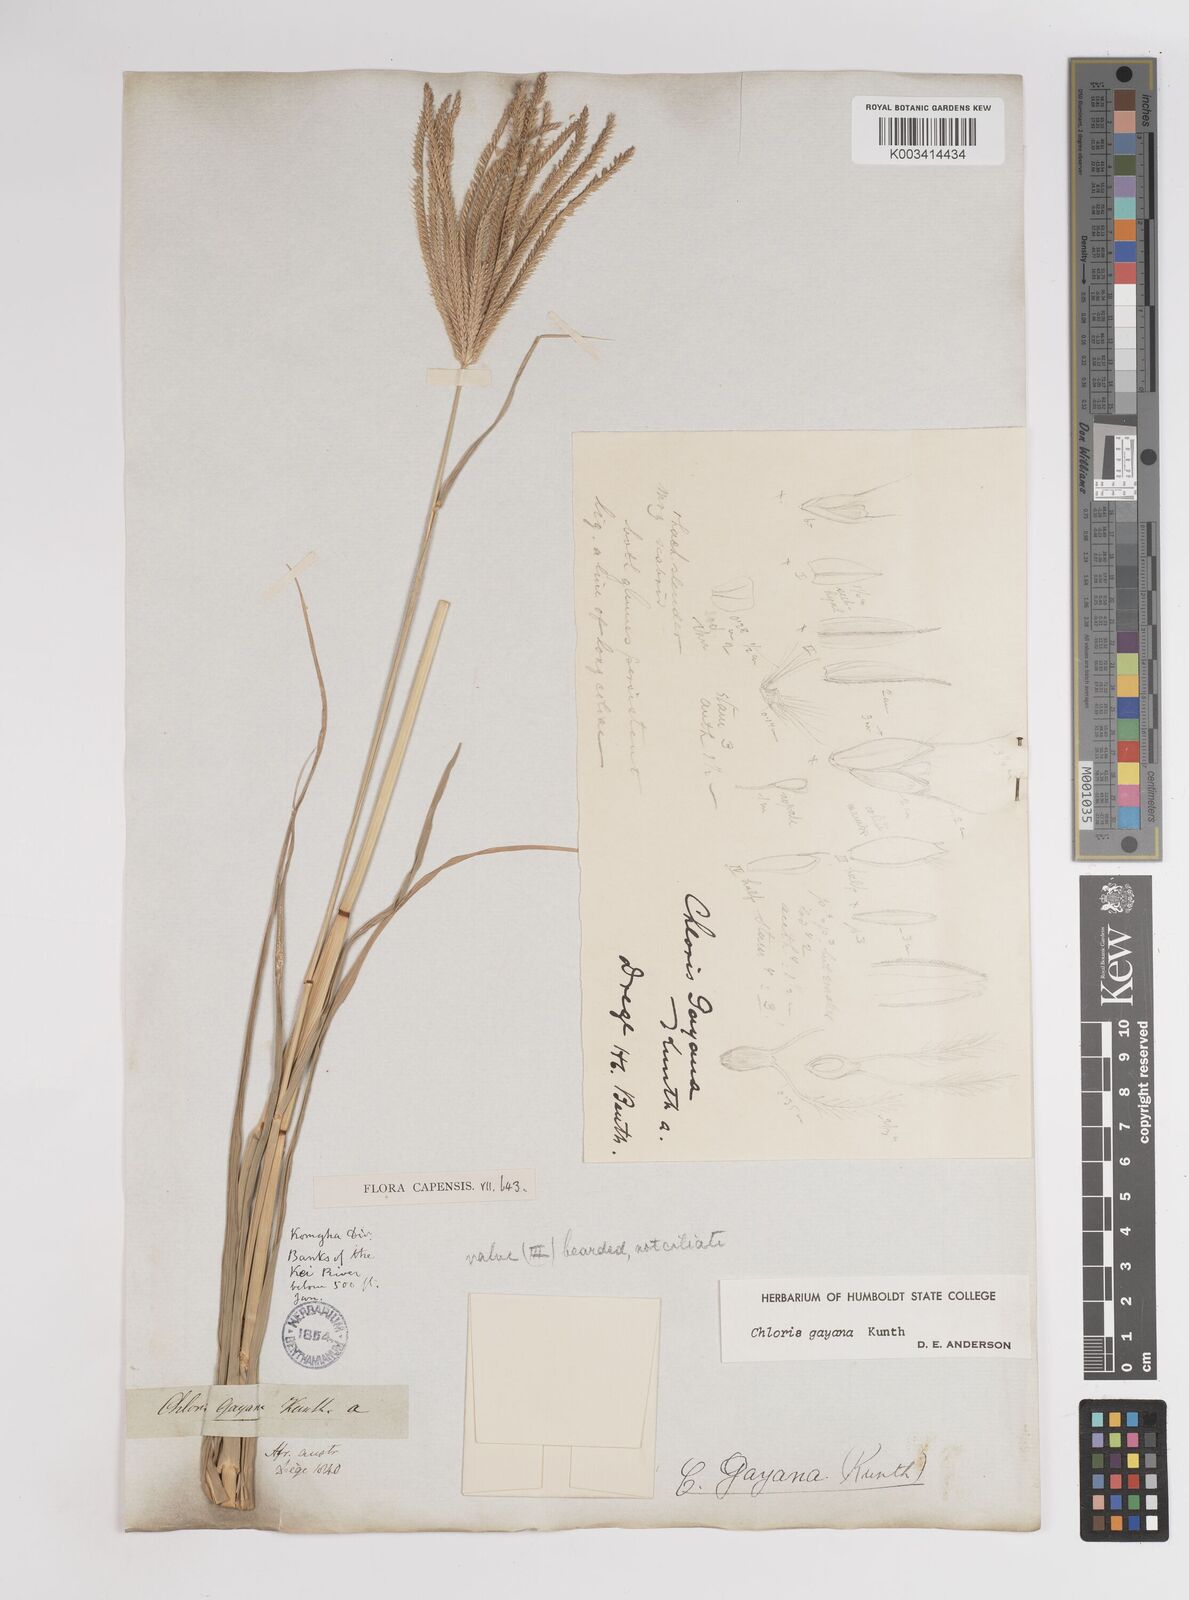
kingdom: Plantae
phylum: Tracheophyta
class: Liliopsida
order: Poales
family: Poaceae
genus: Chloris
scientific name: Chloris gayana
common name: Rhodes grass
